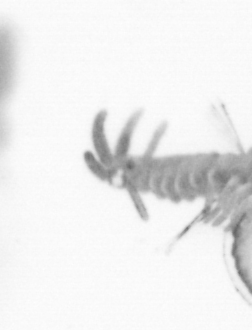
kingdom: Animalia
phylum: Annelida
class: Polychaeta
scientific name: Polychaeta
